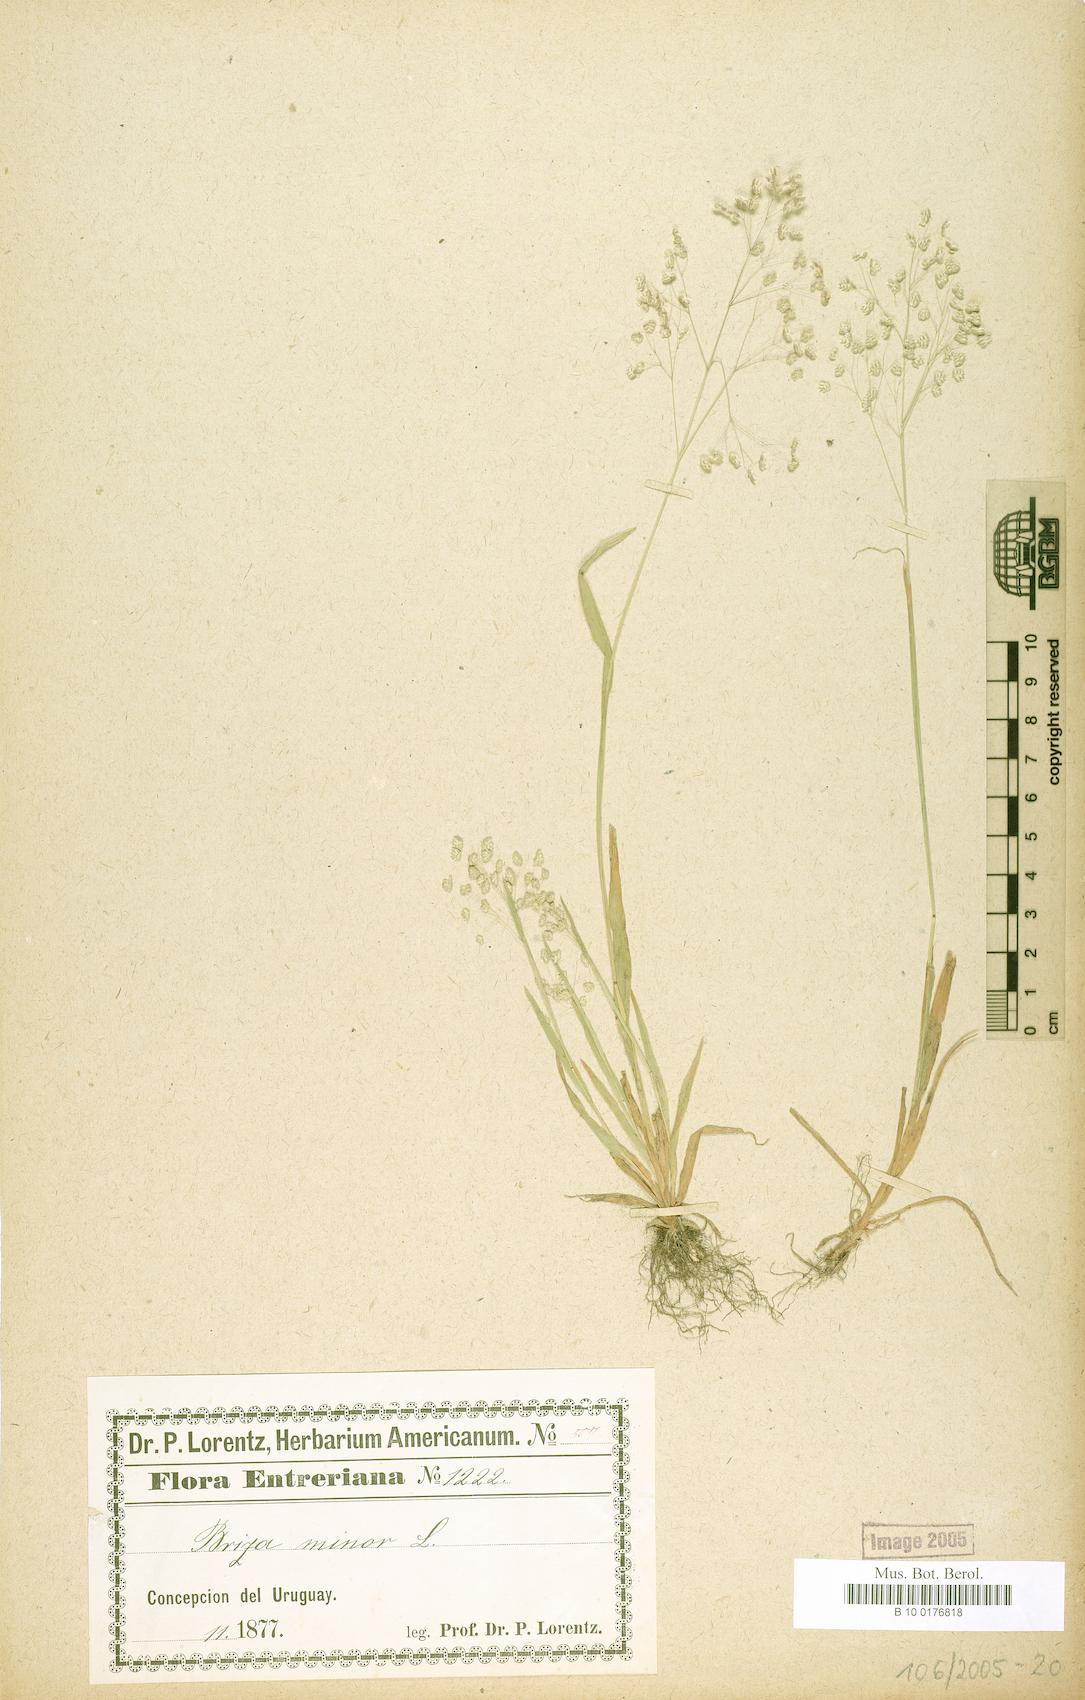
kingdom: Plantae
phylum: Tracheophyta
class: Liliopsida
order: Poales
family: Poaceae
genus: Briza
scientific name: Briza minor
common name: Lesser quaking-grass
